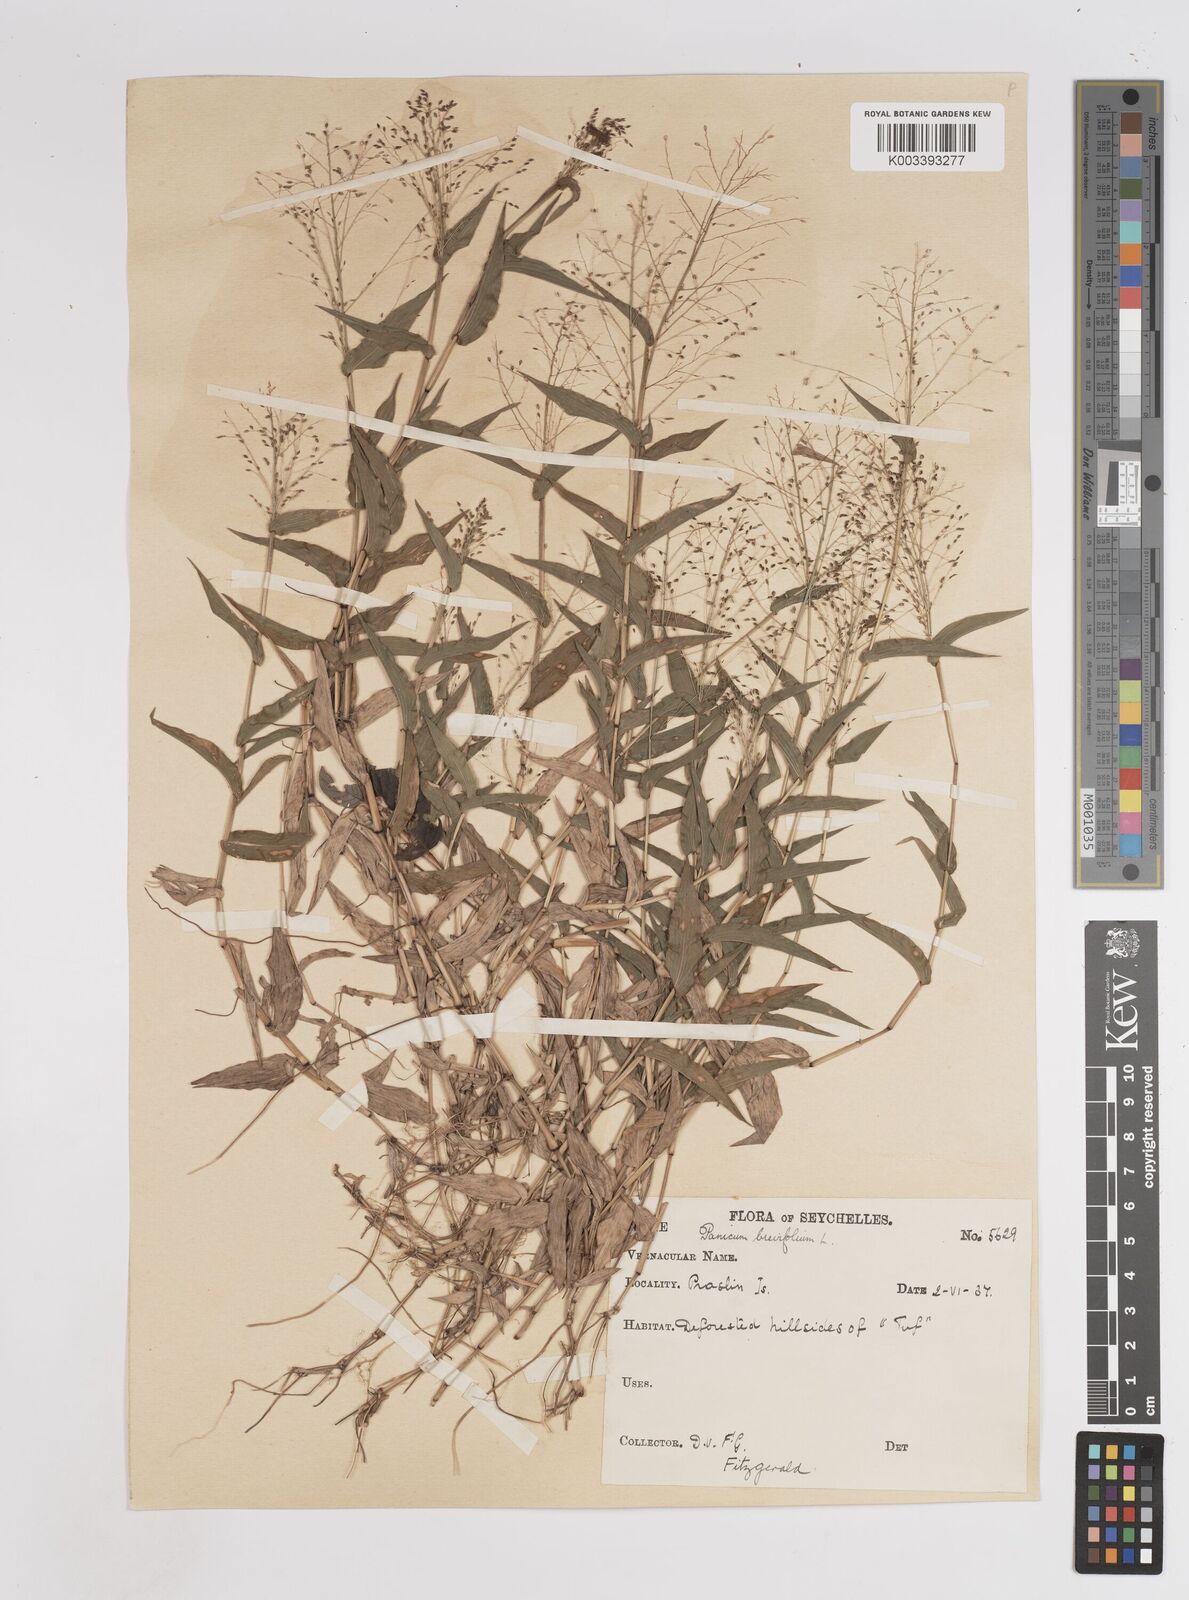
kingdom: Plantae
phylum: Tracheophyta
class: Liliopsida
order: Poales
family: Poaceae
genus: Panicum
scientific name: Panicum brevifolium
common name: Shortleaf panic grass
